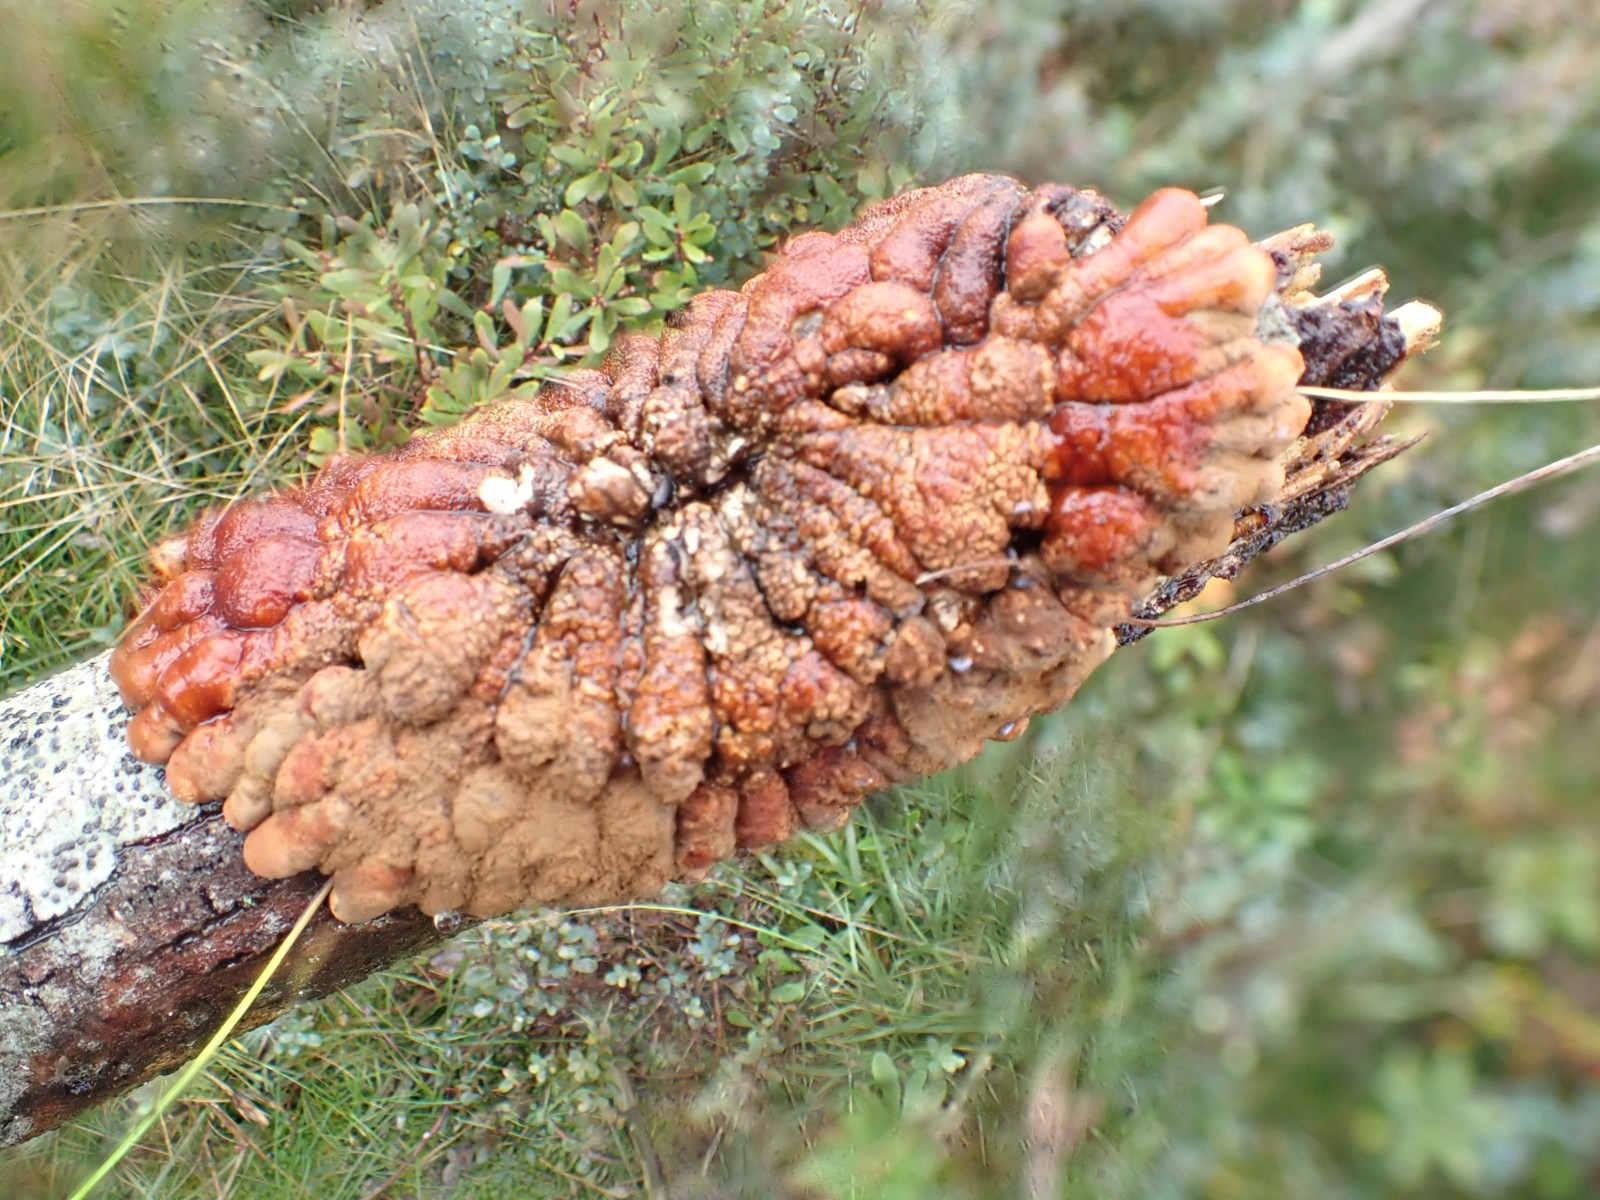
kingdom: Fungi
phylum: Ascomycota
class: Sordariomycetes
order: Hypocreales
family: Hypocreaceae
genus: Hypocreopsis
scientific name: Hypocreopsis lichenoides
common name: pilfinger
